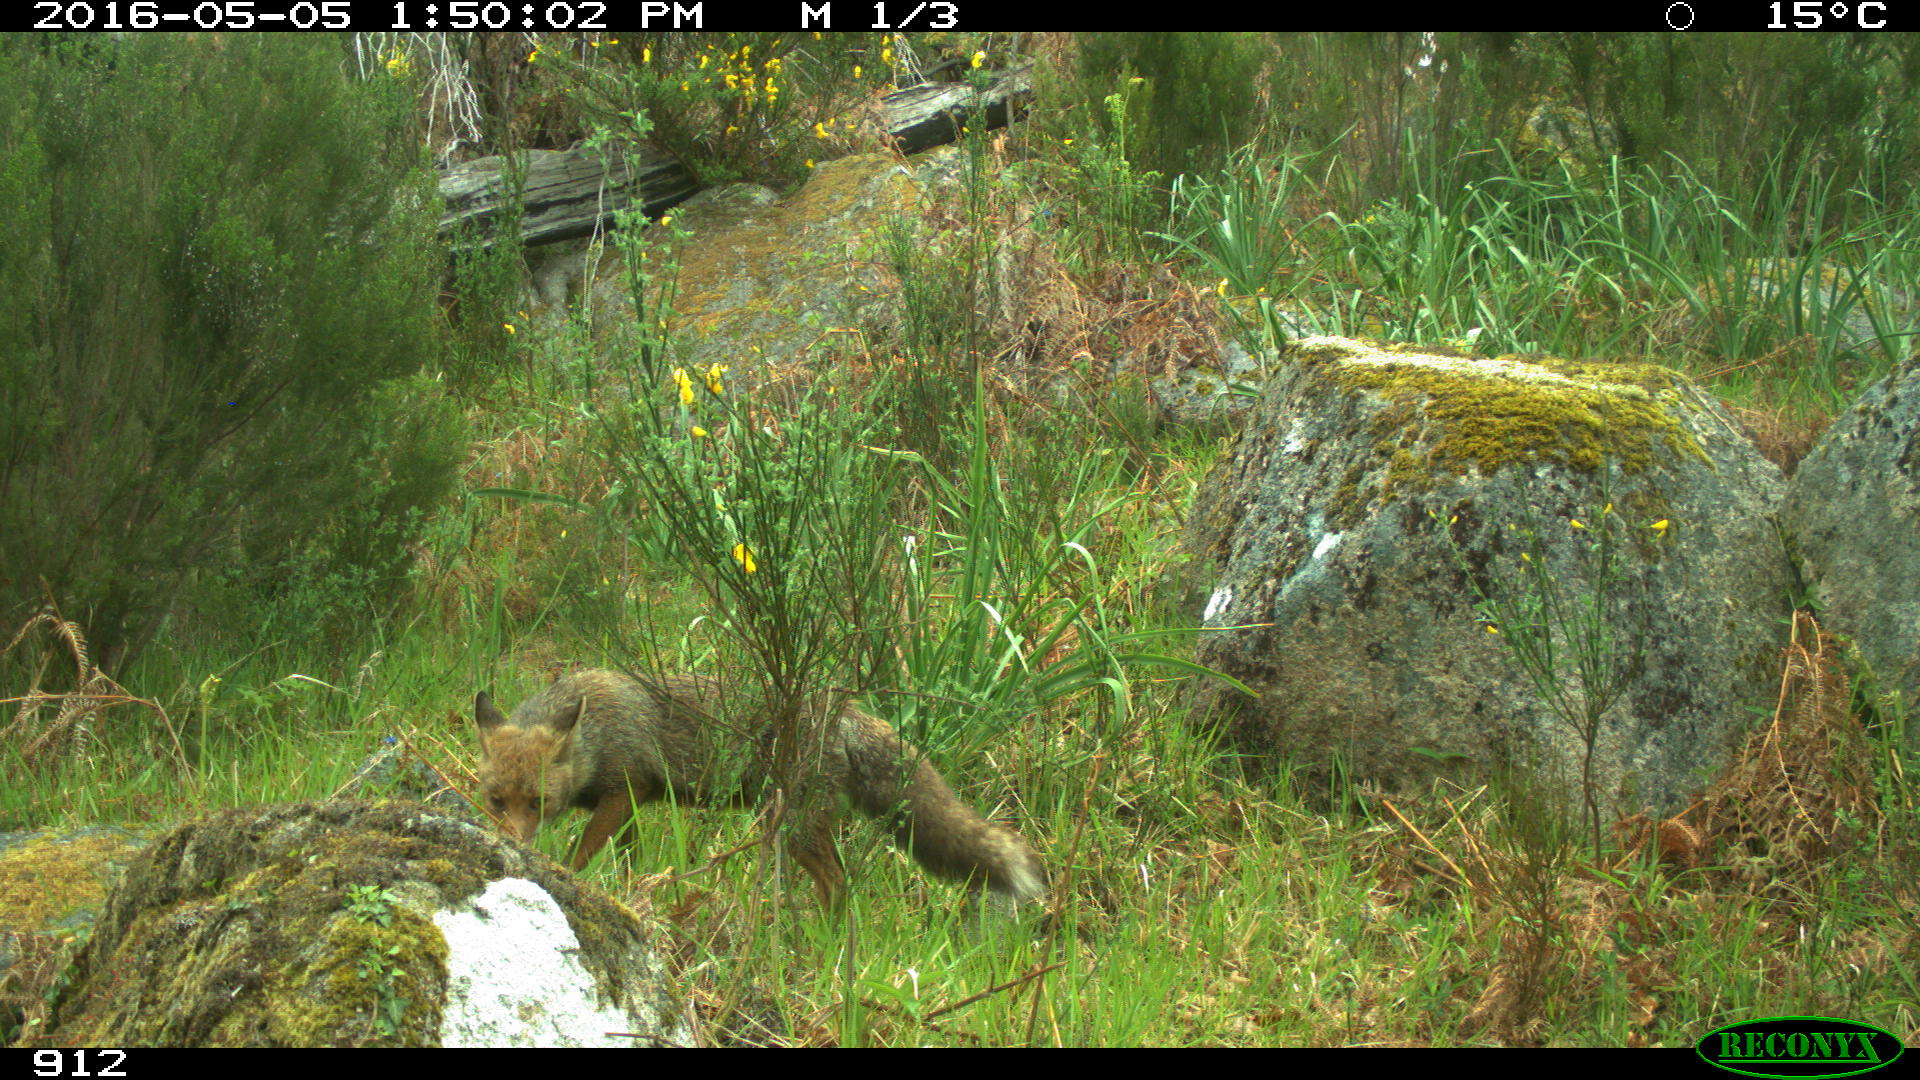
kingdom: Animalia
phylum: Chordata
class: Mammalia
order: Carnivora
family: Canidae
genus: Vulpes
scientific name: Vulpes vulpes
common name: Red fox
